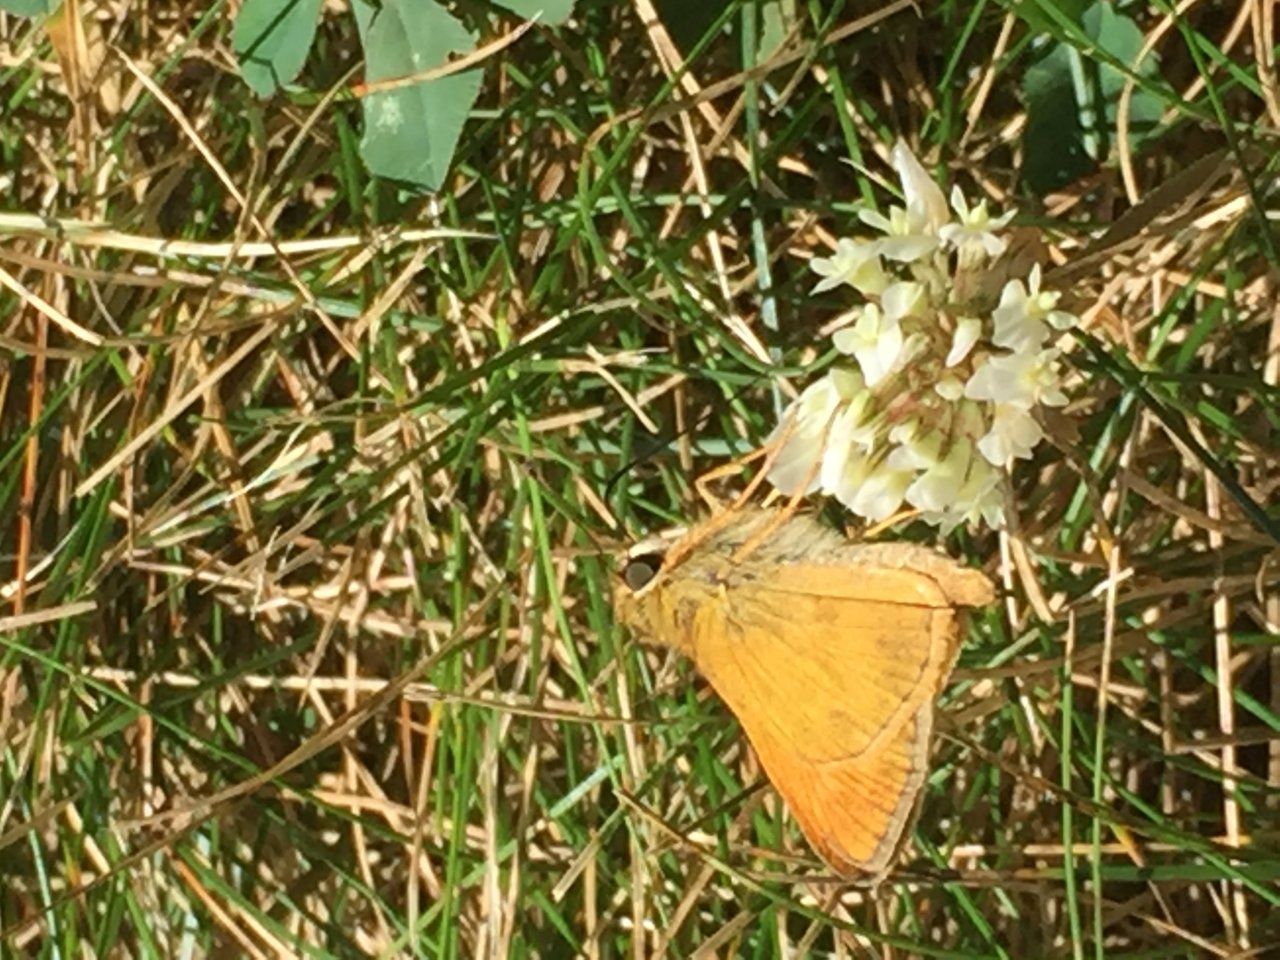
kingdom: Animalia
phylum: Arthropoda
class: Insecta
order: Lepidoptera
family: Hesperiidae
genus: Atalopedes
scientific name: Atalopedes campestris
